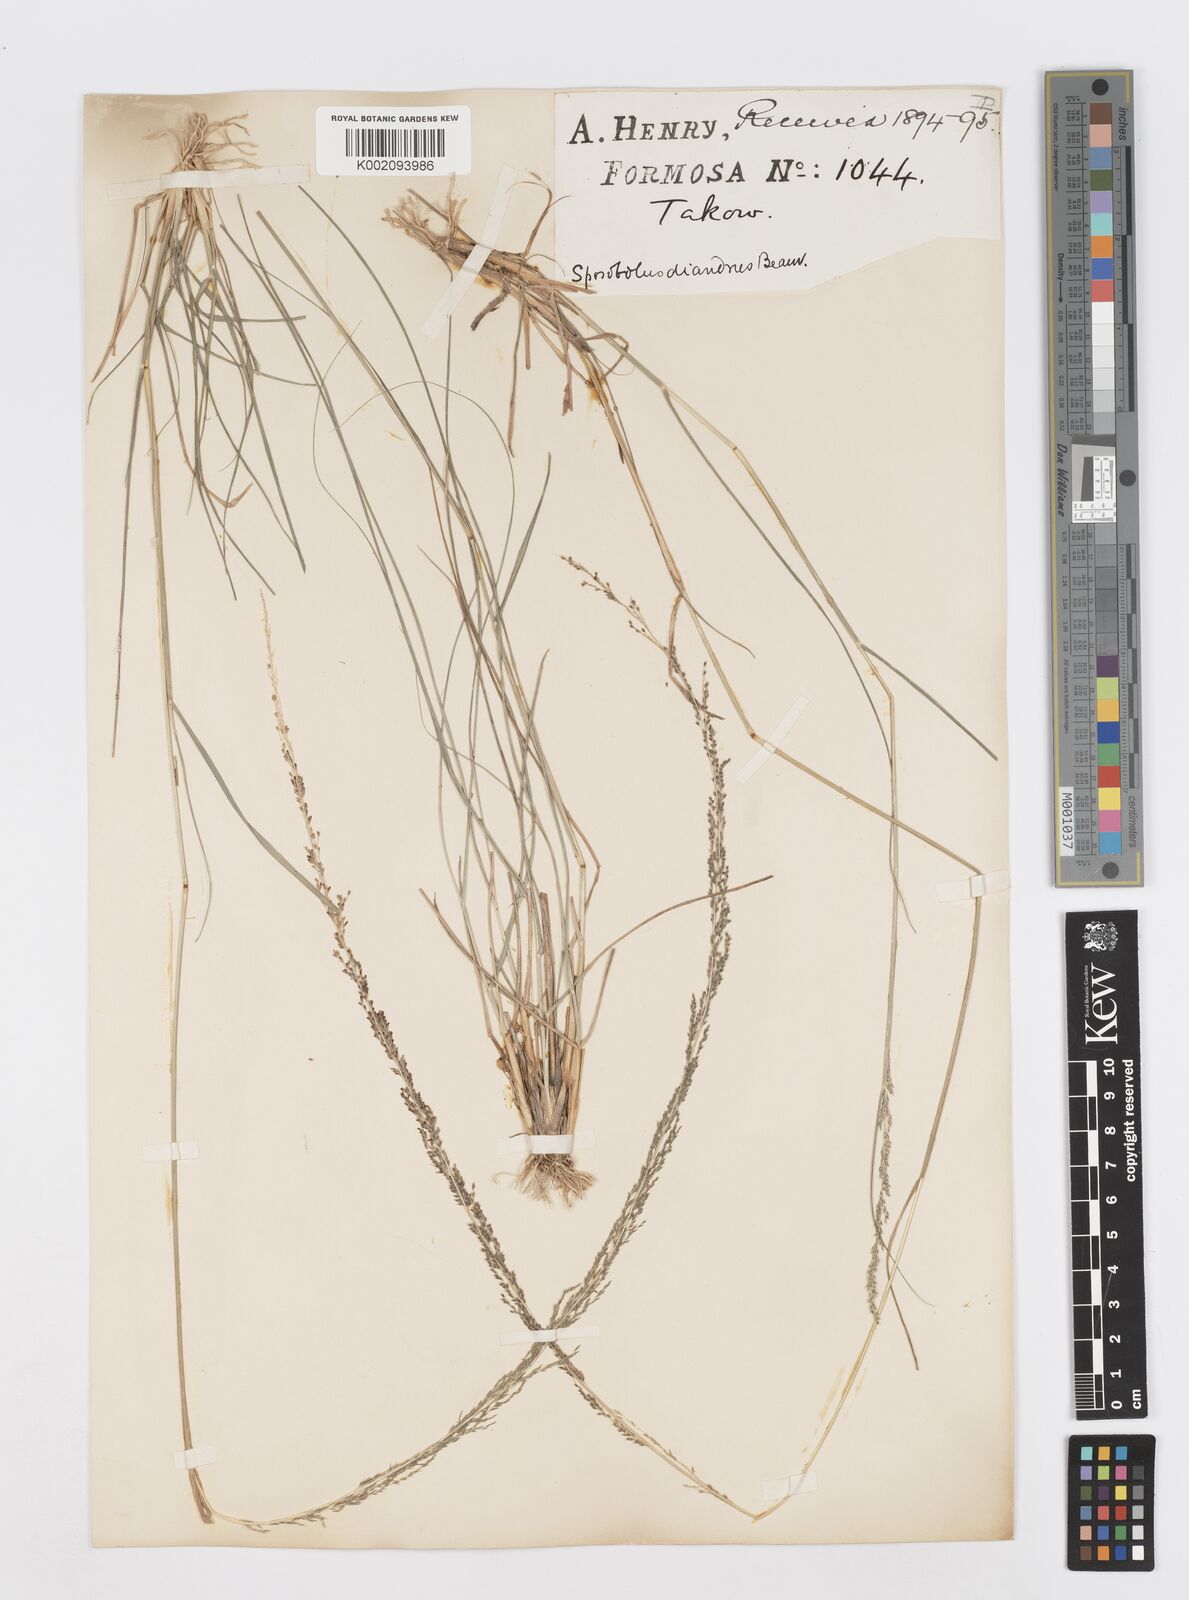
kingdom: Plantae
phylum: Tracheophyta
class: Liliopsida
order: Poales
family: Poaceae
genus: Sporobolus
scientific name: Sporobolus diandrus
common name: Tussock dropseed
